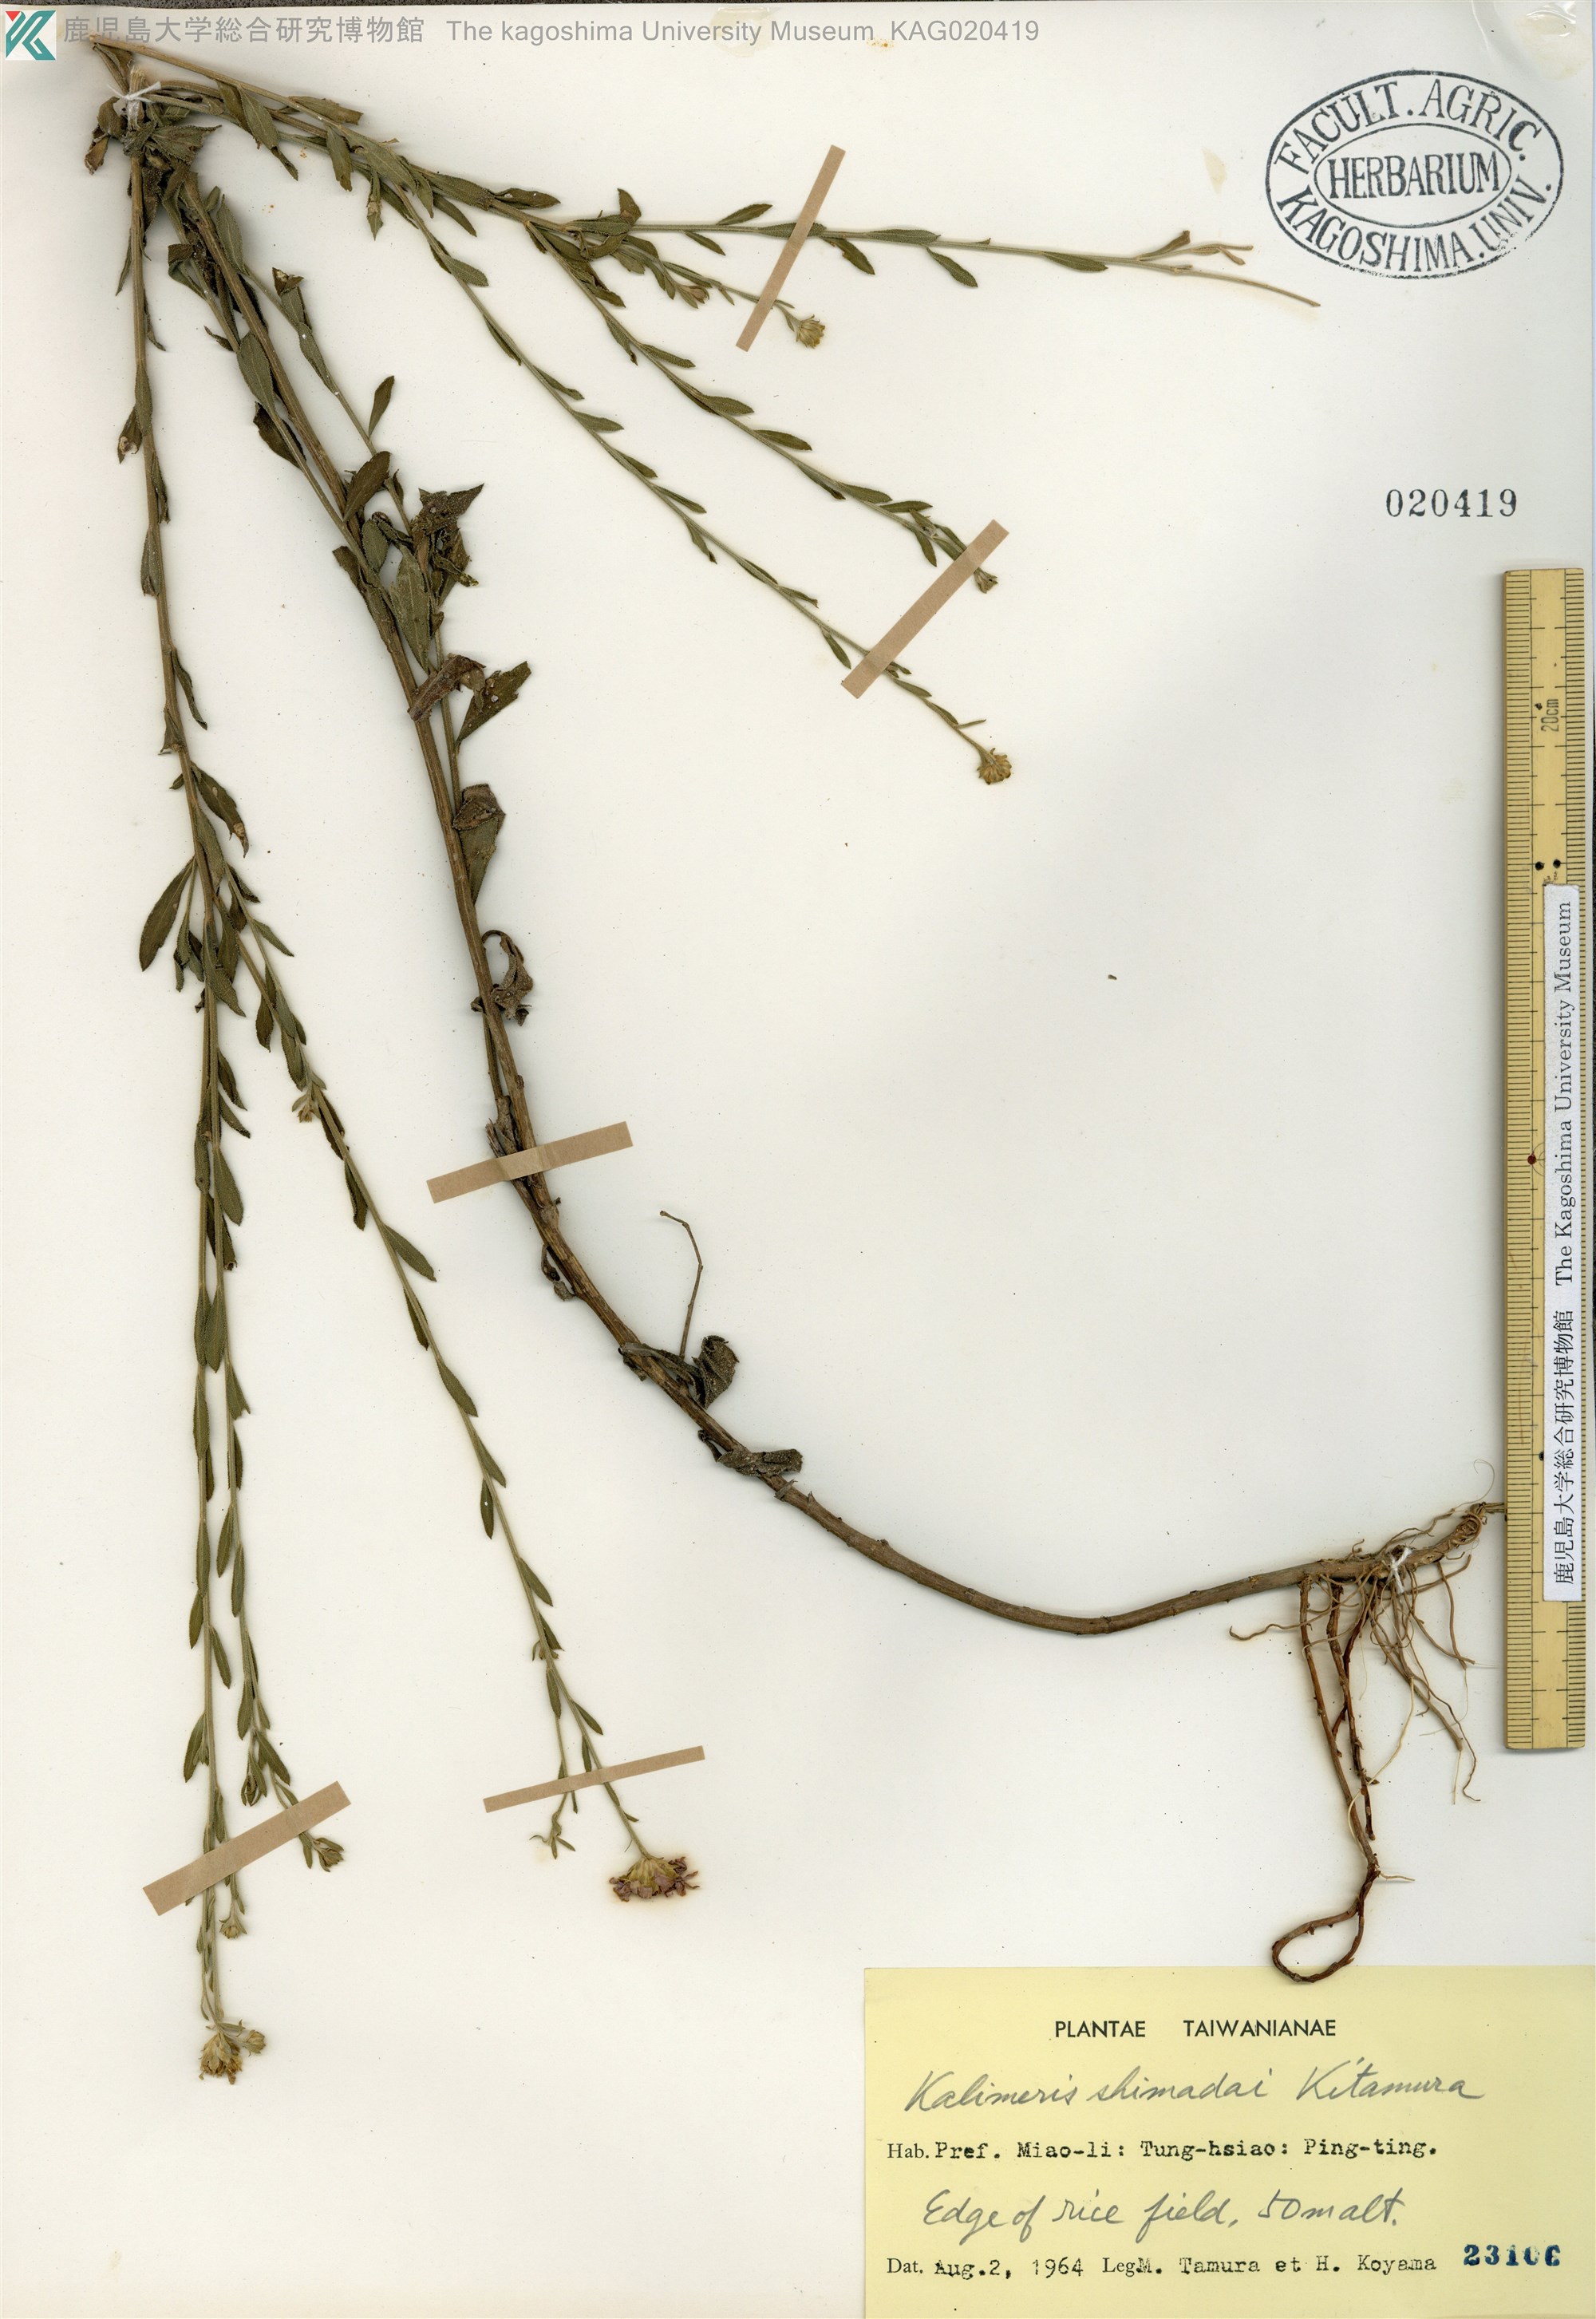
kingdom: Plantae
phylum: Tracheophyta
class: Magnoliopsida
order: Asterales
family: Asteraceae
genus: Kalimeris
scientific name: Kalimeris shimadai
